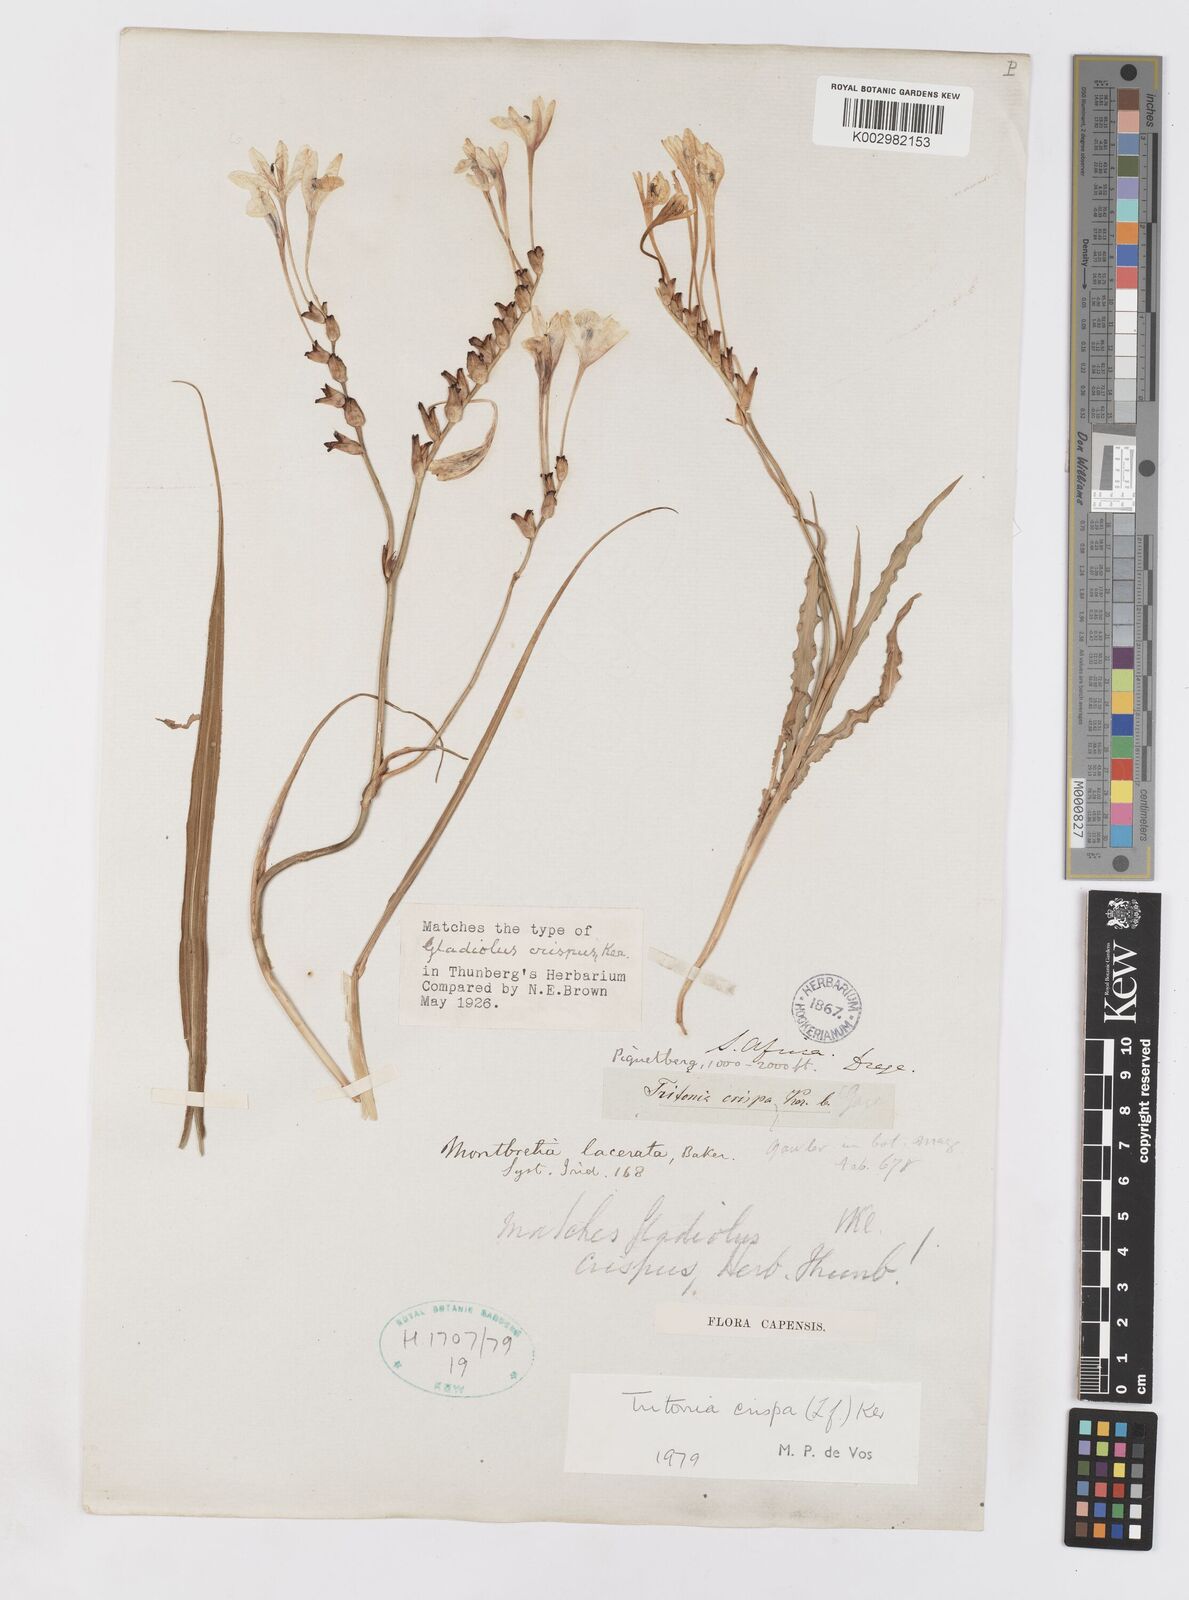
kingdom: Plantae
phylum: Tracheophyta
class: Liliopsida
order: Asparagales
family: Iridaceae
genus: Tritonia
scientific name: Tritonia undulata
